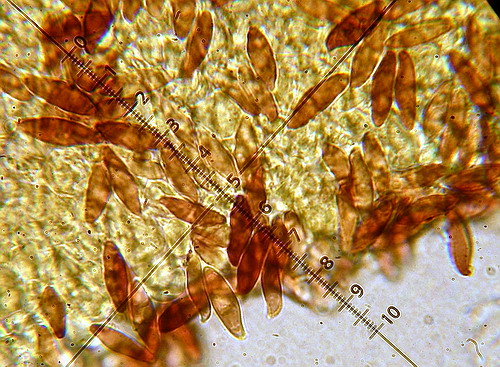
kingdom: Fungi
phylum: Basidiomycota
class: Agaricomycetes
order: Agaricales
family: Agaricaceae
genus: Lepiota
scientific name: Lepiota magnispora
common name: gulfnugget parasolhat
